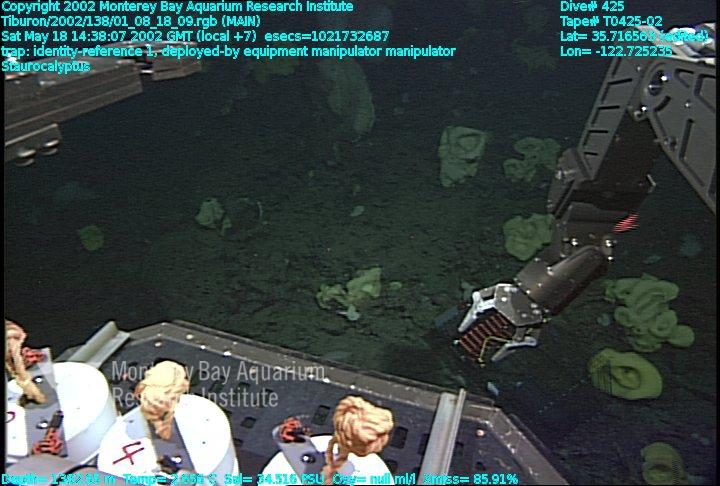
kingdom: Animalia
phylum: Porifera
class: Hexactinellida
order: Lyssacinosida
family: Rossellidae
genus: Staurocalyptus
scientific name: Staurocalyptus
